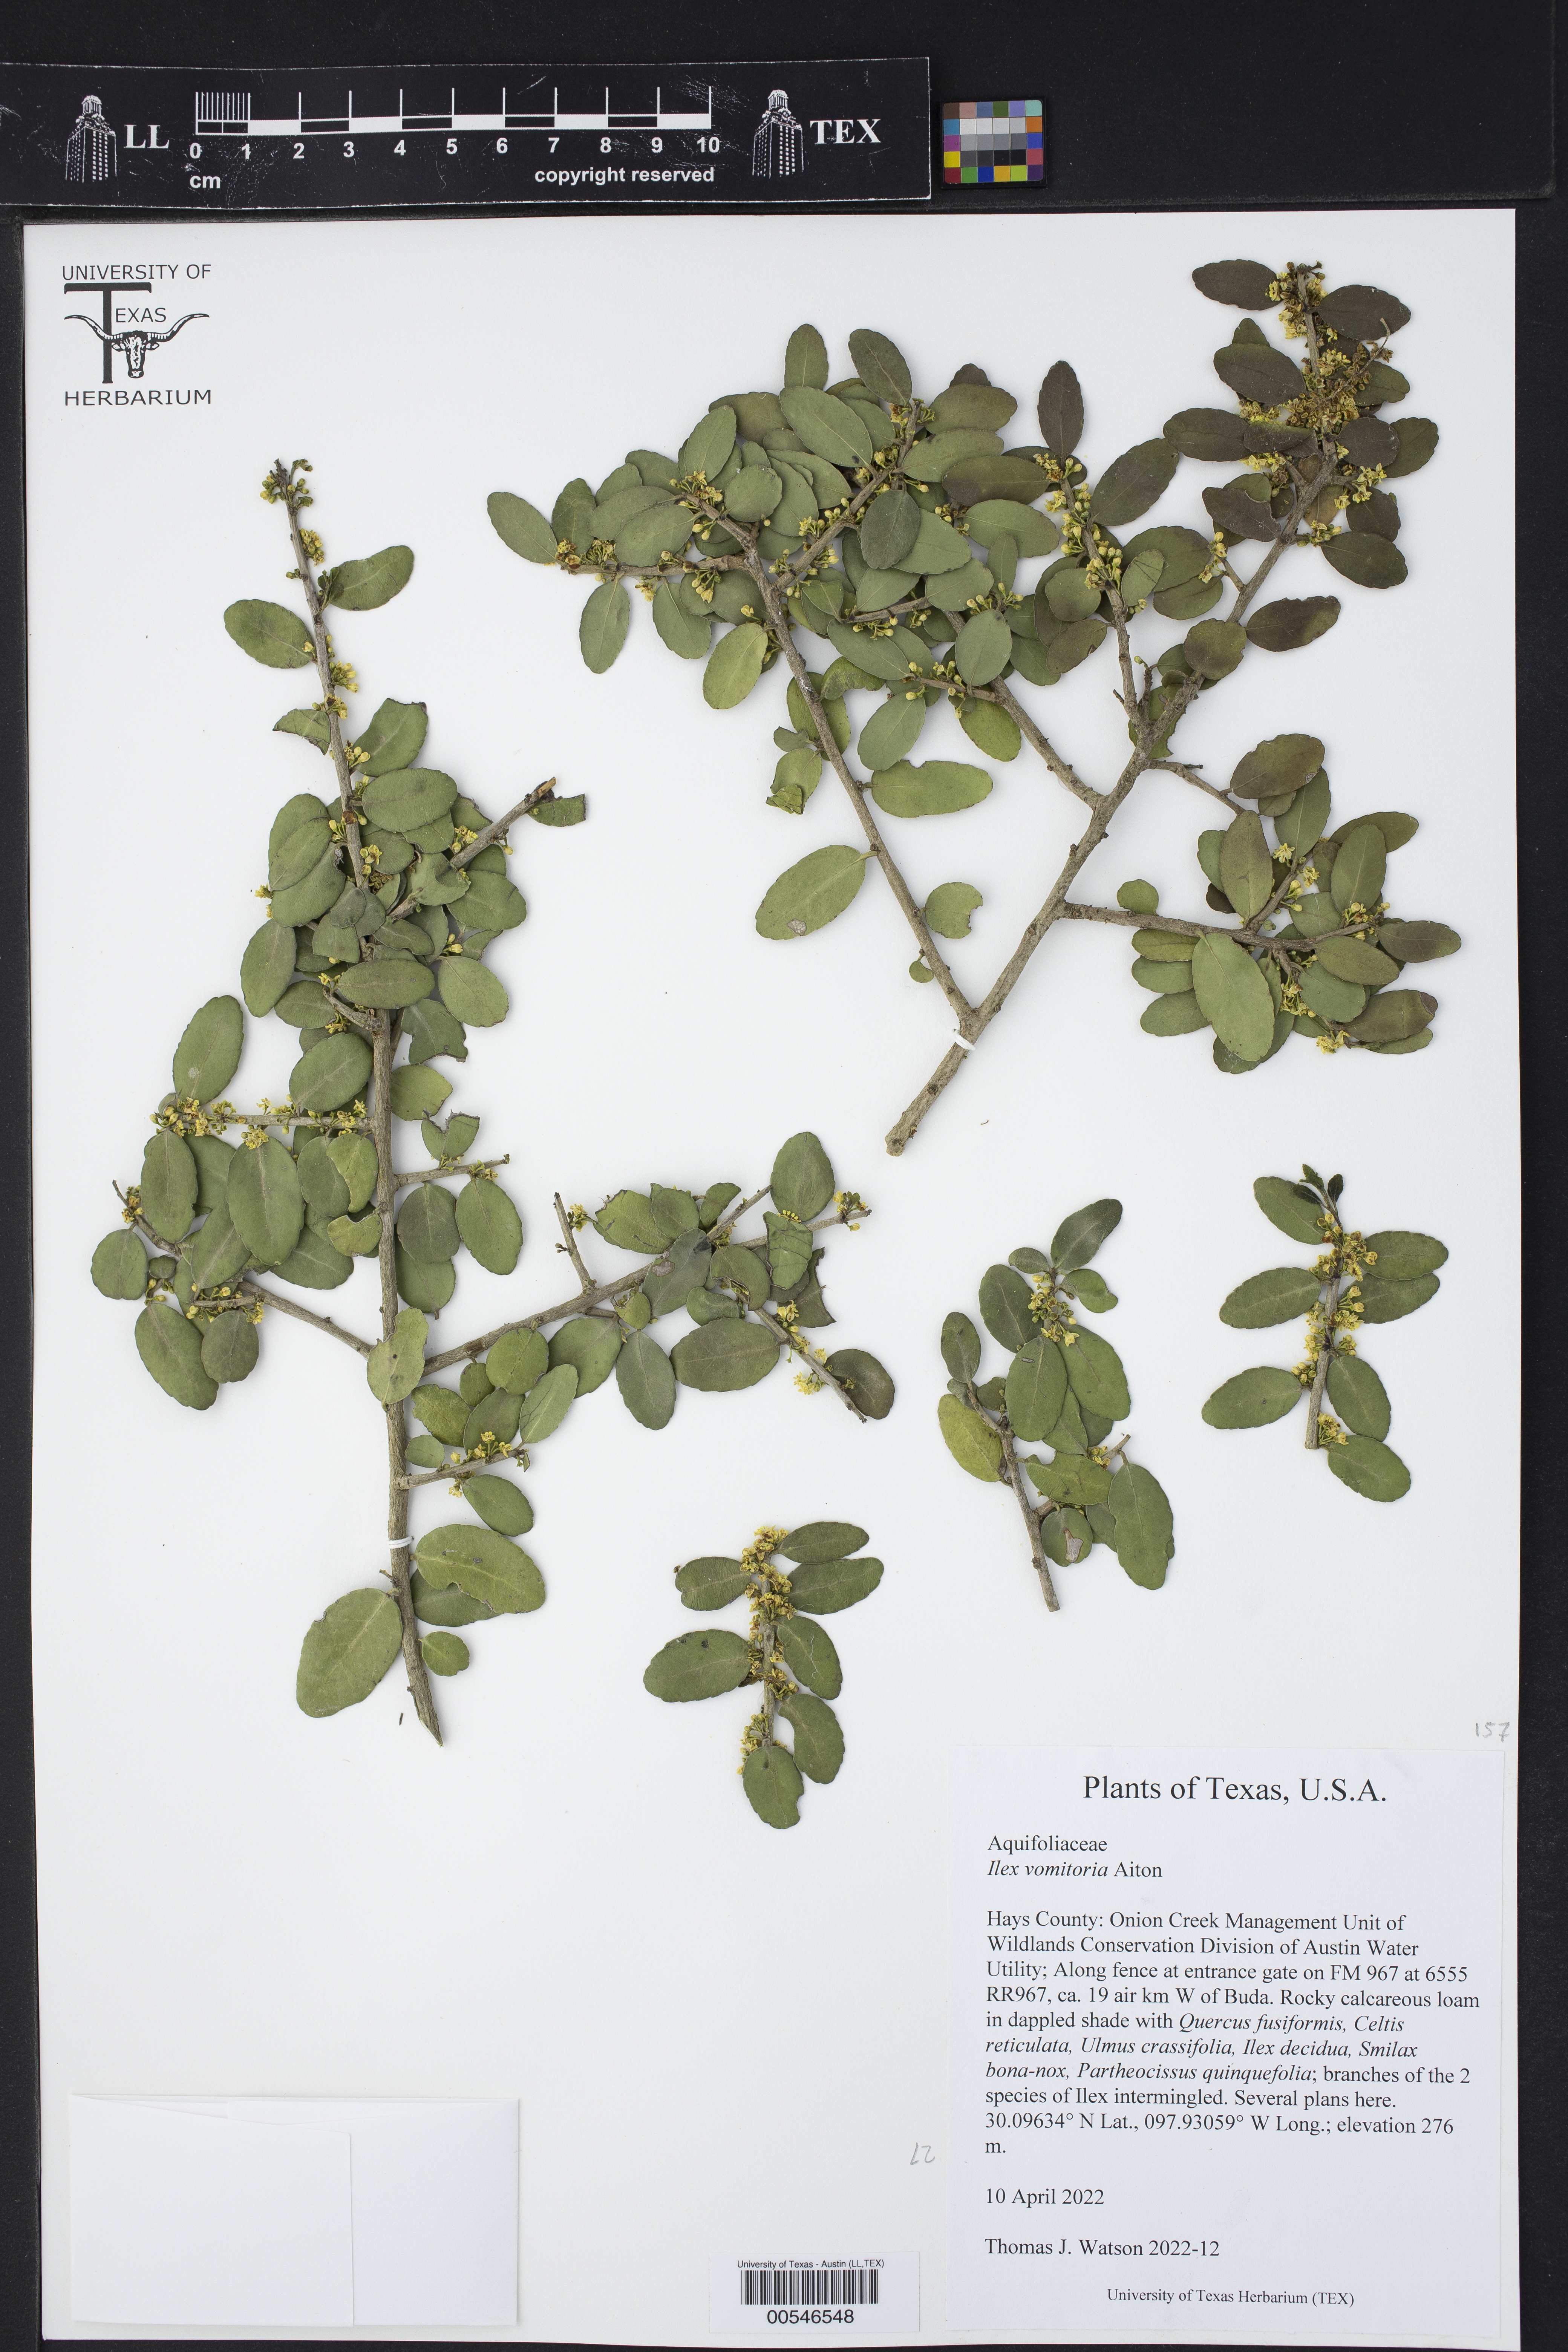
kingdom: Plantae
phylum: Tracheophyta
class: Magnoliopsida
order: Aquifoliales
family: Aquifoliaceae
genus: Ilex
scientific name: Ilex vomitoria
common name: Yaupon holly
